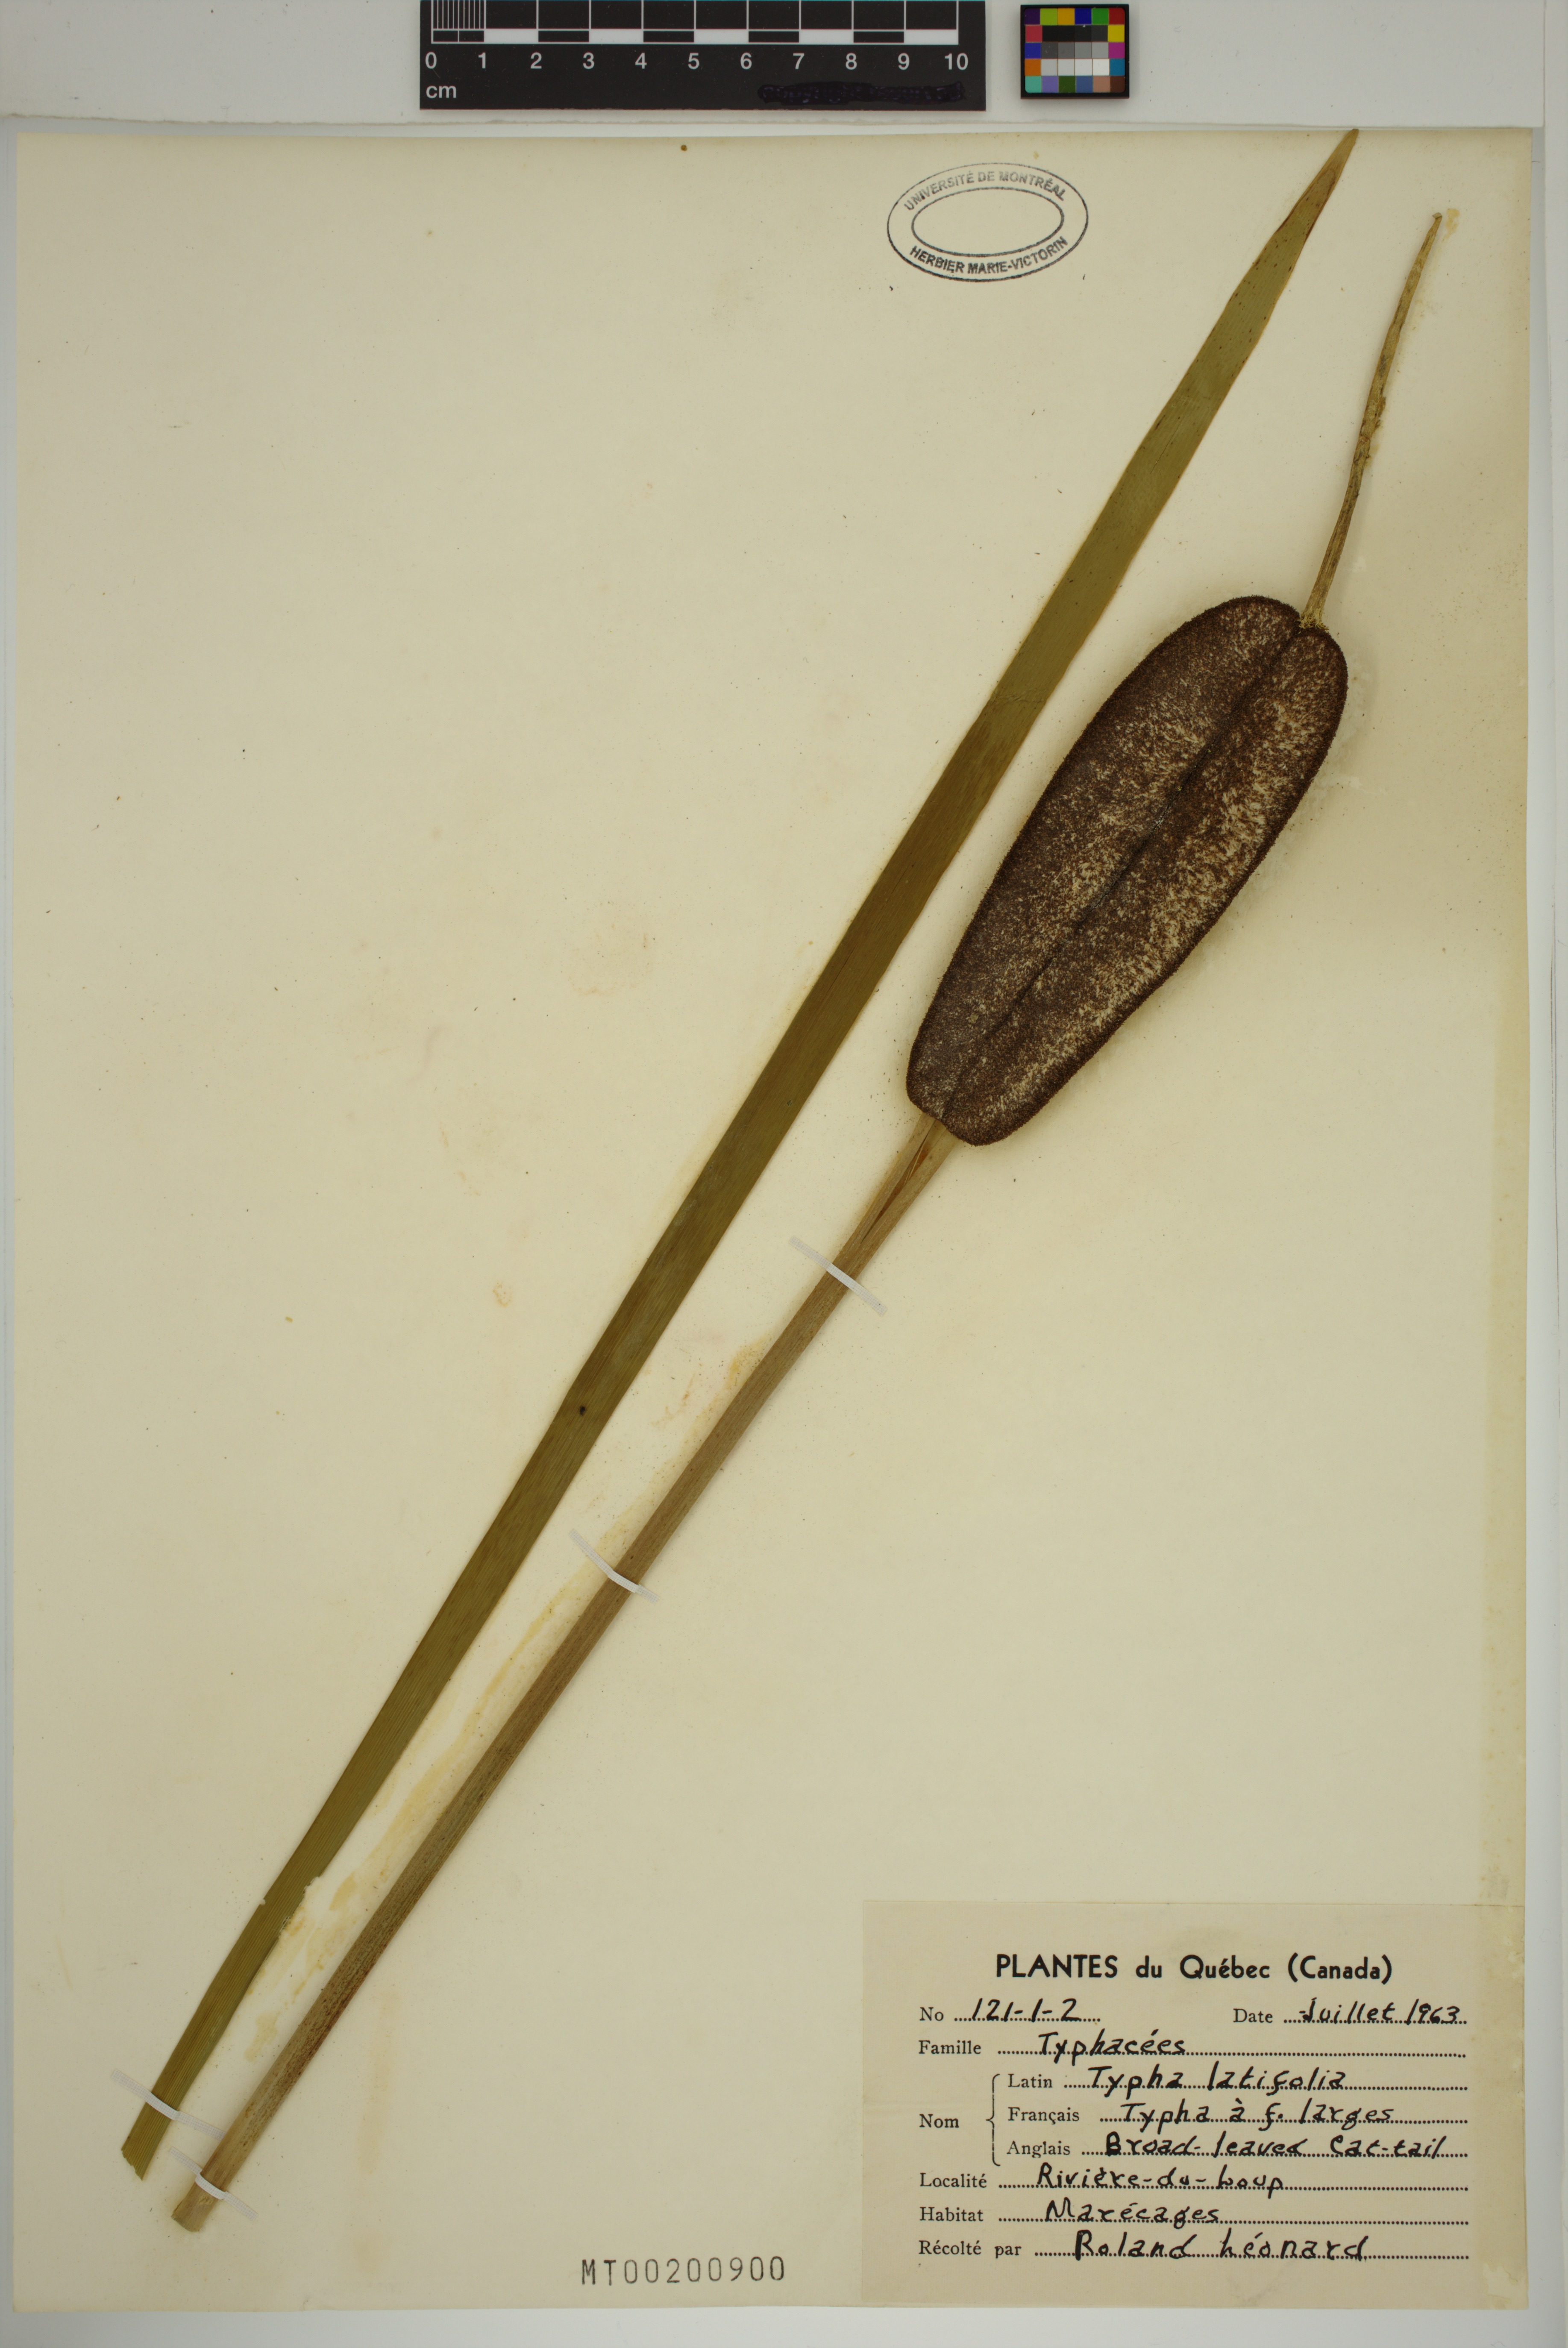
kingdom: Plantae
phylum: Tracheophyta
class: Liliopsida
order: Poales
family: Typhaceae
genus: Typha
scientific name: Typha latifolia
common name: Broadleaf cattail
